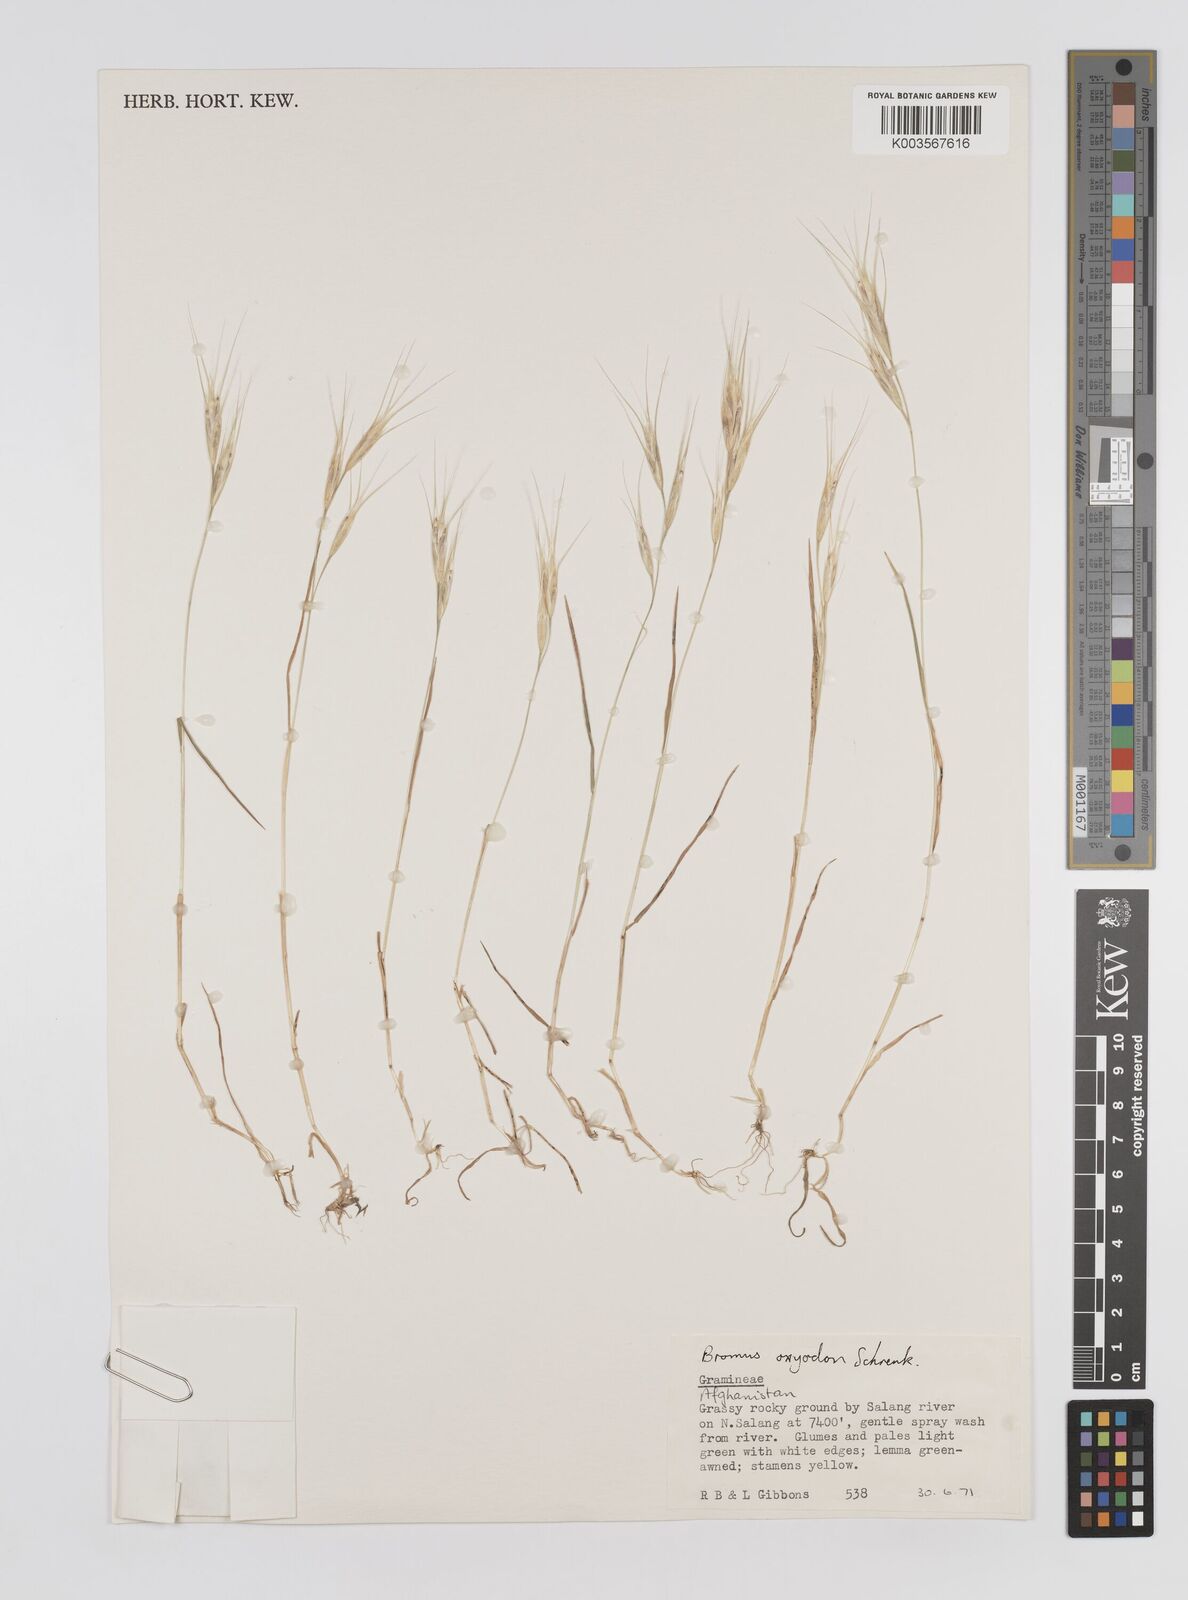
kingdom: Plantae
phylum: Tracheophyta
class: Liliopsida
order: Poales
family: Poaceae
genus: Bromus
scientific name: Bromus oxyodon
